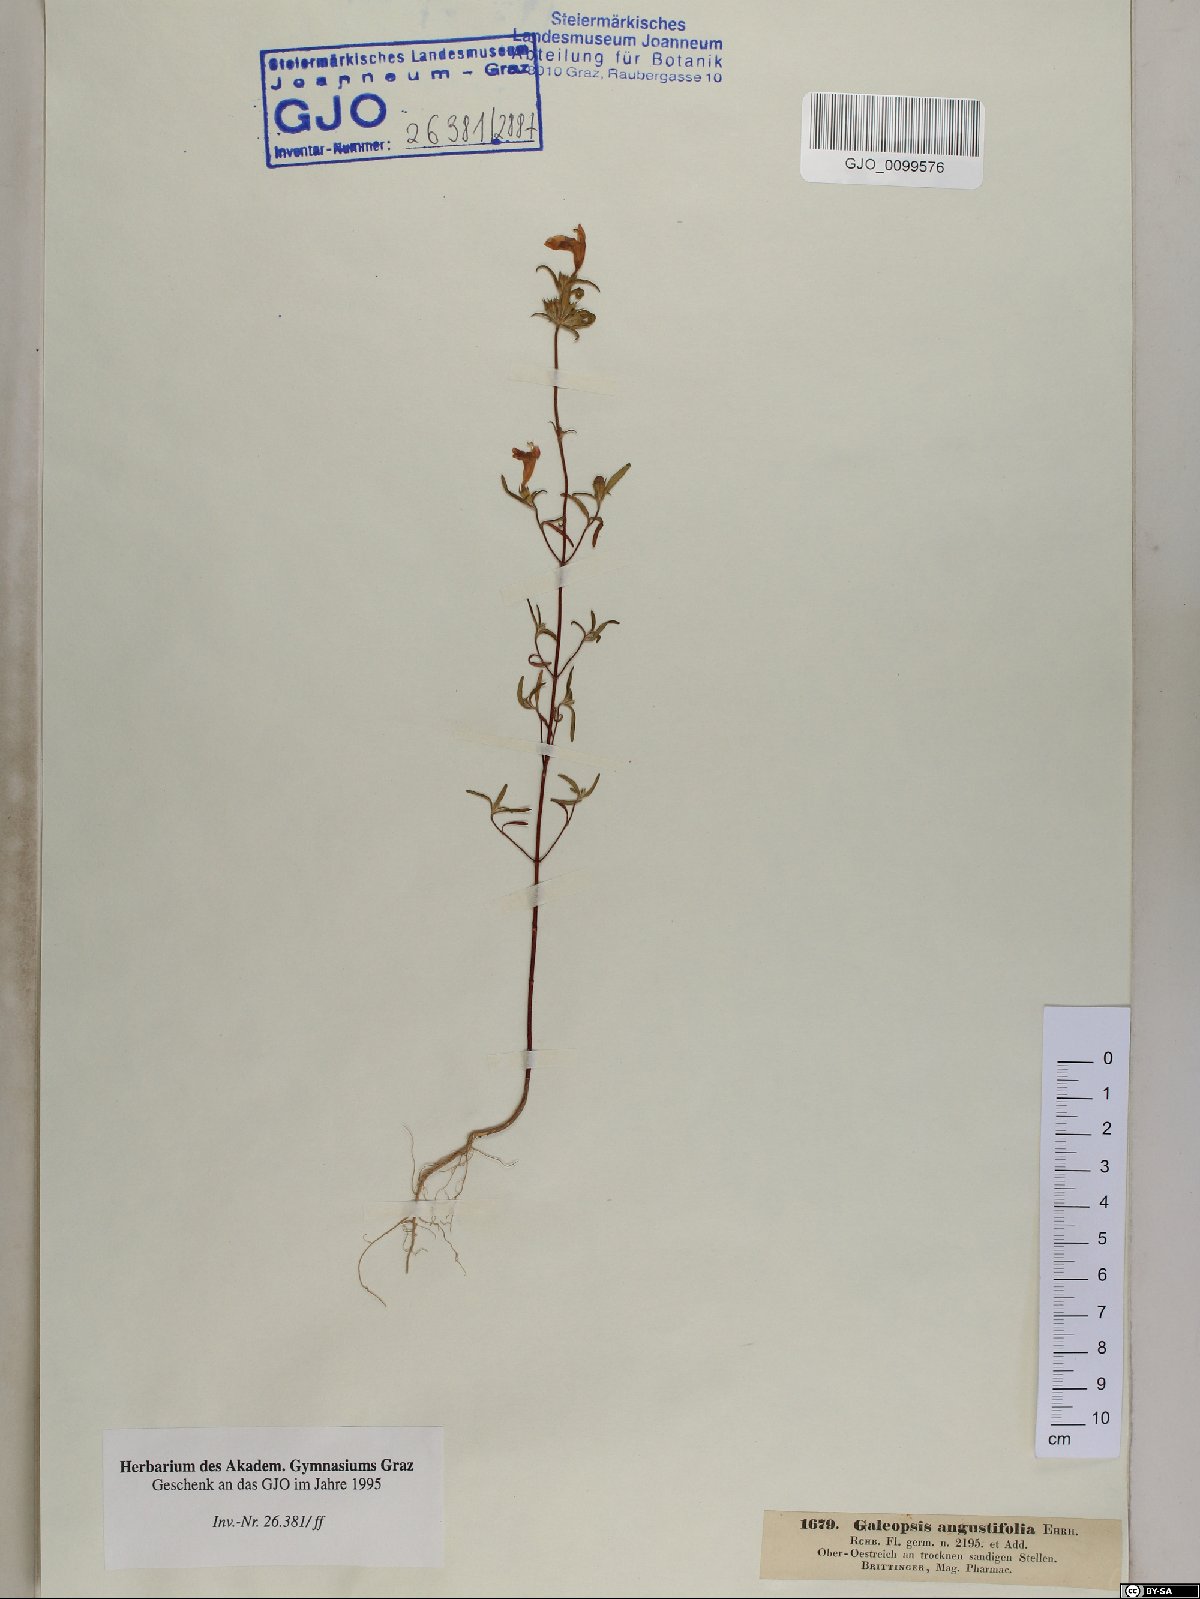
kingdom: Plantae
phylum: Tracheophyta
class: Magnoliopsida
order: Lamiales
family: Lamiaceae
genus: Galeopsis
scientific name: Galeopsis angustifolia
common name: Red hemp-nettle
